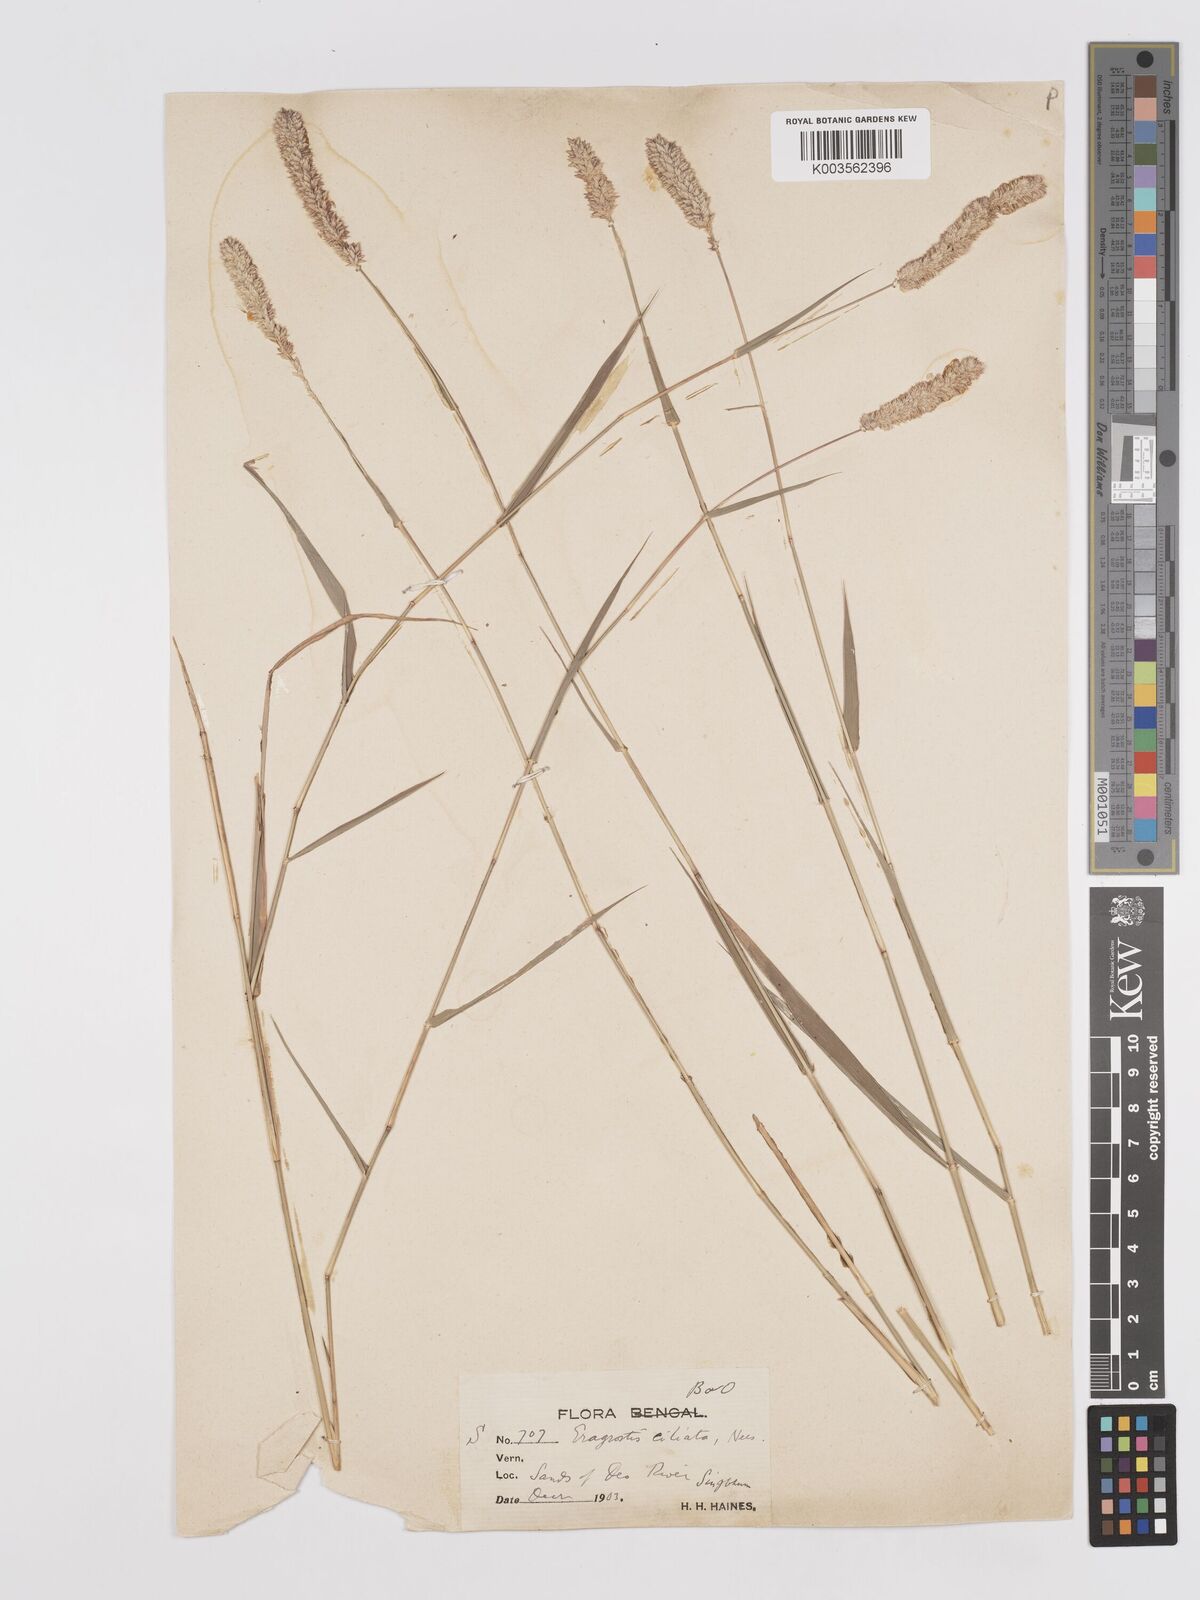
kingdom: Plantae
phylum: Tracheophyta
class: Liliopsida
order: Poales
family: Poaceae
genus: Eragrostis
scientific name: Eragrostis ciliata
